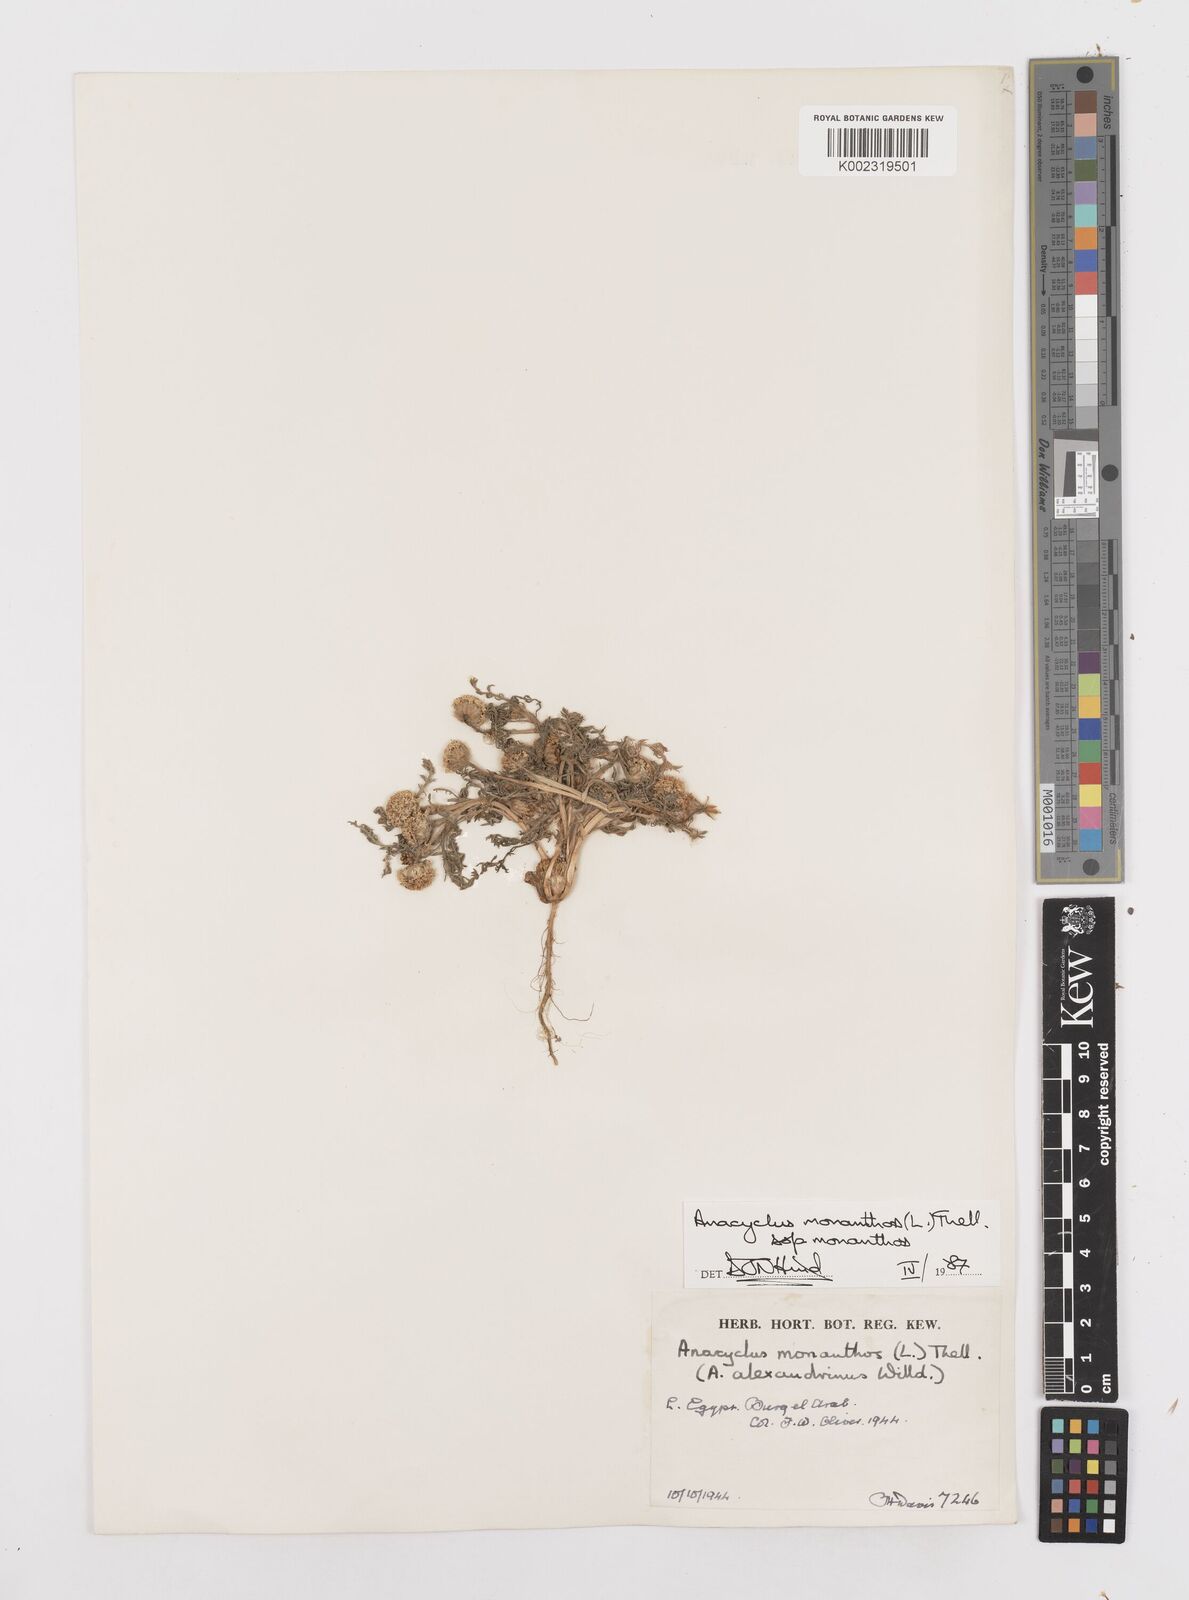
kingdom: Plantae
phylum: Tracheophyta
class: Magnoliopsida
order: Asterales
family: Asteraceae
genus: Anacyclus
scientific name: Anacyclus monanthos
